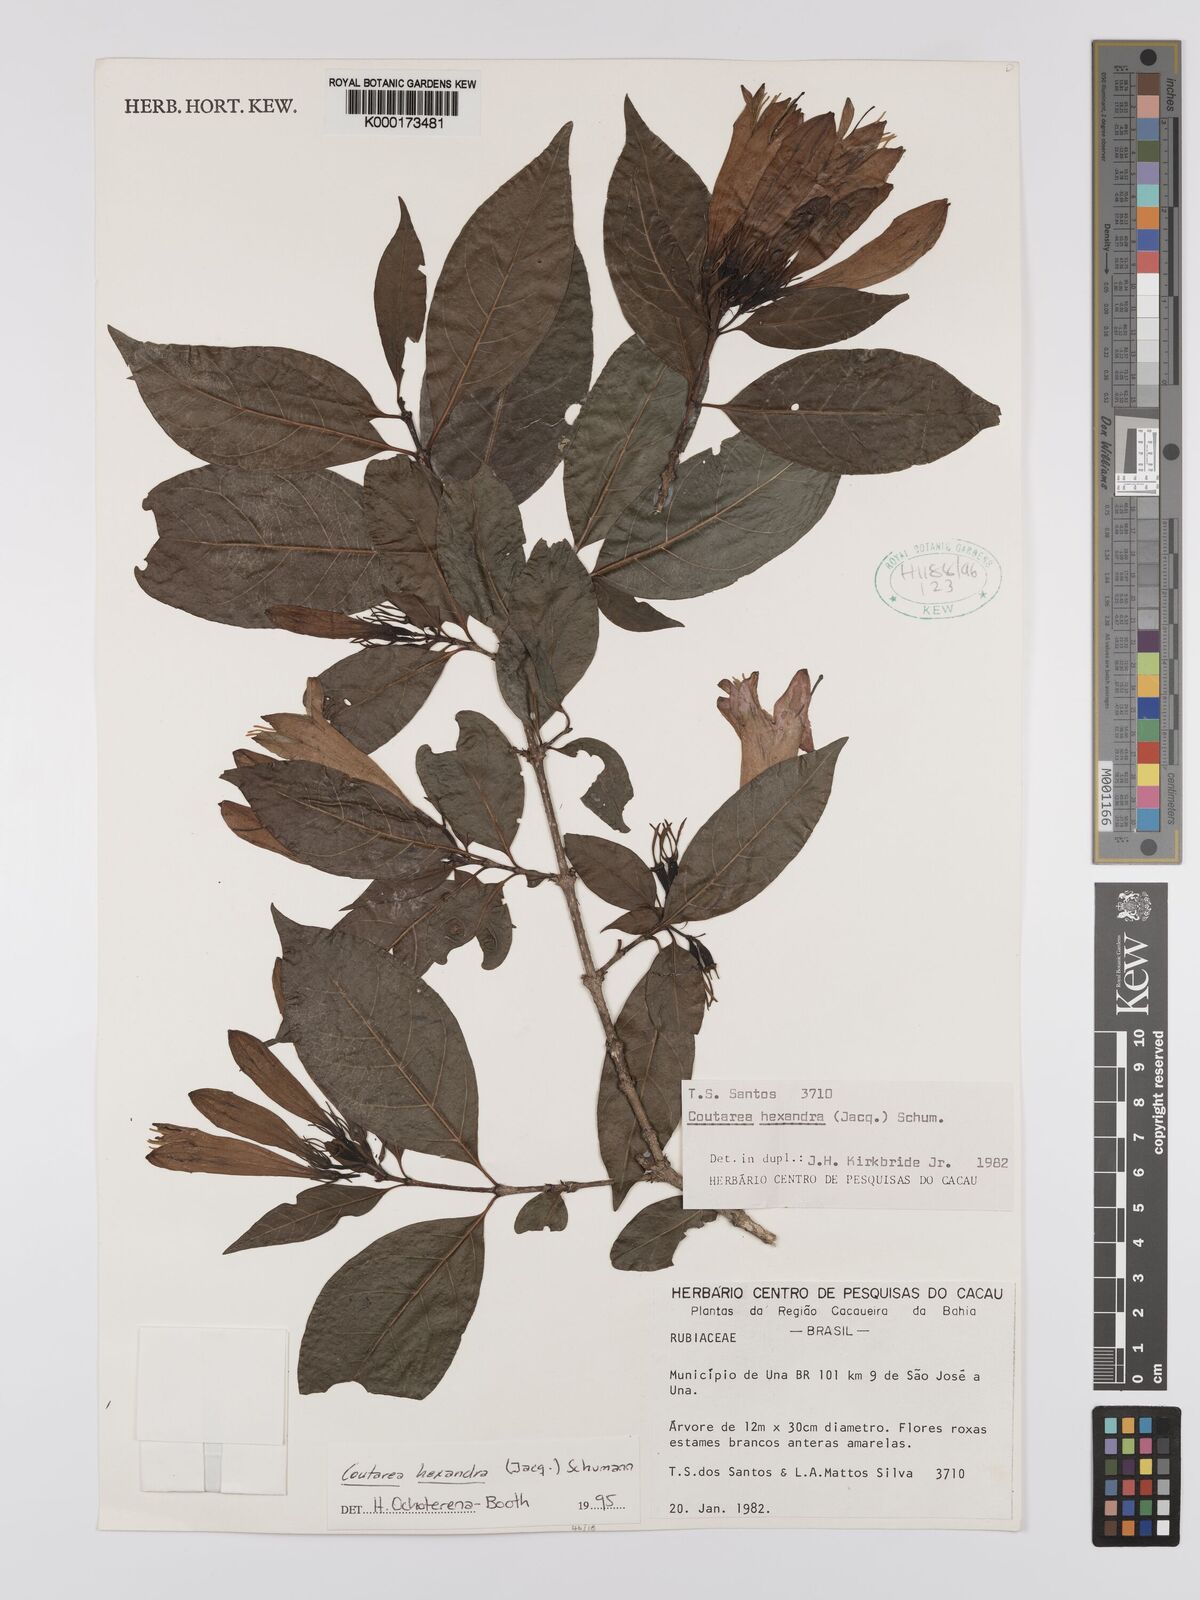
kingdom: Plantae
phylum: Tracheophyta
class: Magnoliopsida
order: Gentianales
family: Rubiaceae
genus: Coutarea
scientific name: Coutarea hexandra
